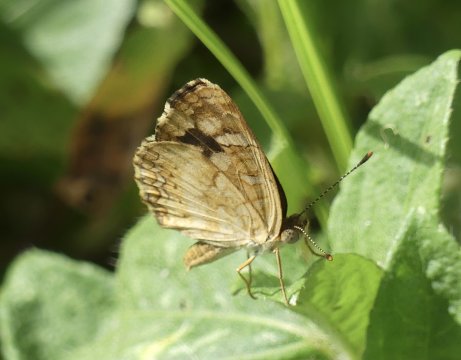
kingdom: Animalia
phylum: Arthropoda
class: Insecta
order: Lepidoptera
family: Nymphalidae
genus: Anthanassa
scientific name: Anthanassa tulcis
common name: Pale-banded Crescent
